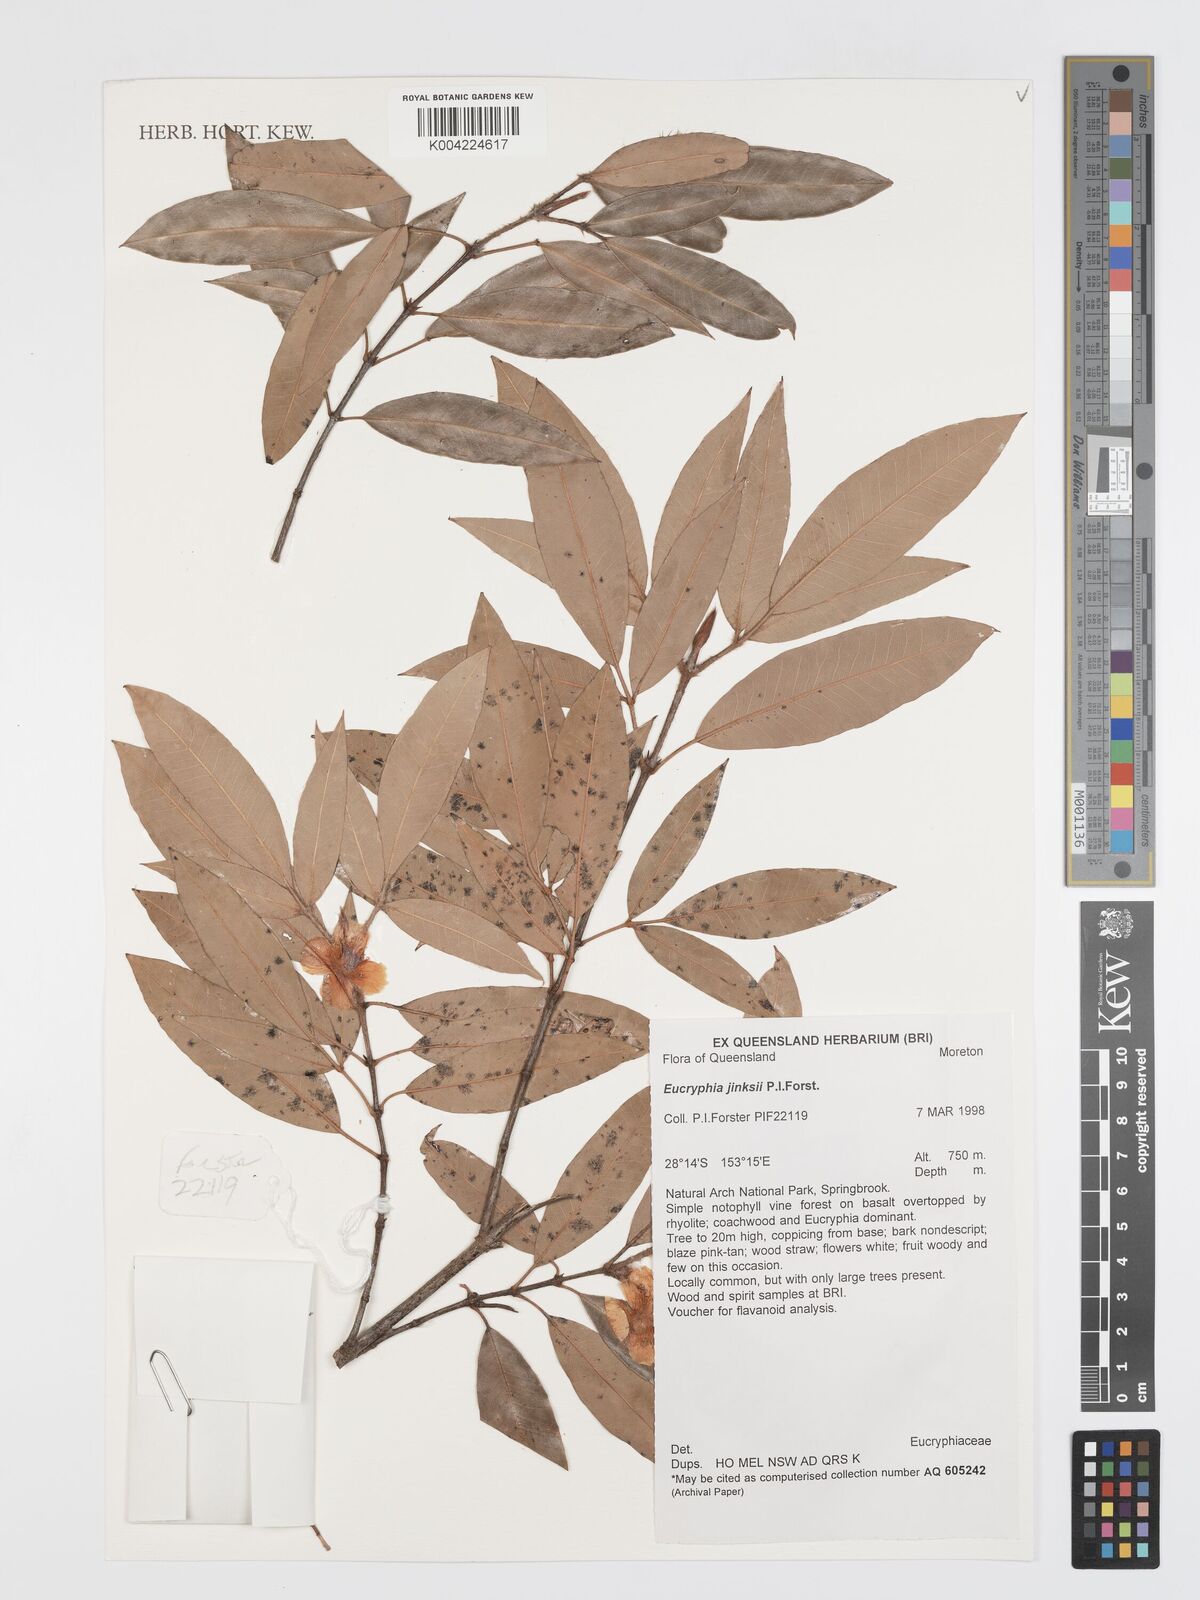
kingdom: Plantae
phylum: Tracheophyta
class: Magnoliopsida
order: Oxalidales
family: Cunoniaceae
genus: Eucryphia
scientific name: Eucryphia jinksii
